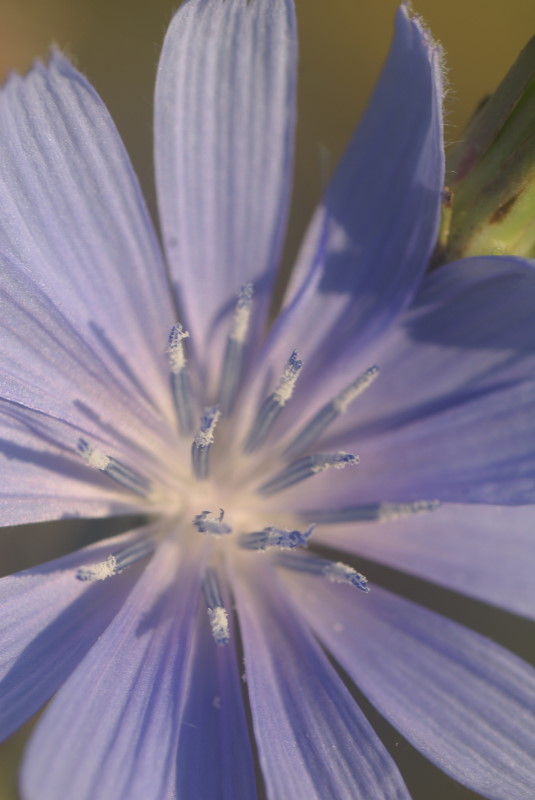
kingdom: Plantae
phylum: Tracheophyta
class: Magnoliopsida
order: Asterales
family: Asteraceae
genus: Cichorium
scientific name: Cichorium intybus
